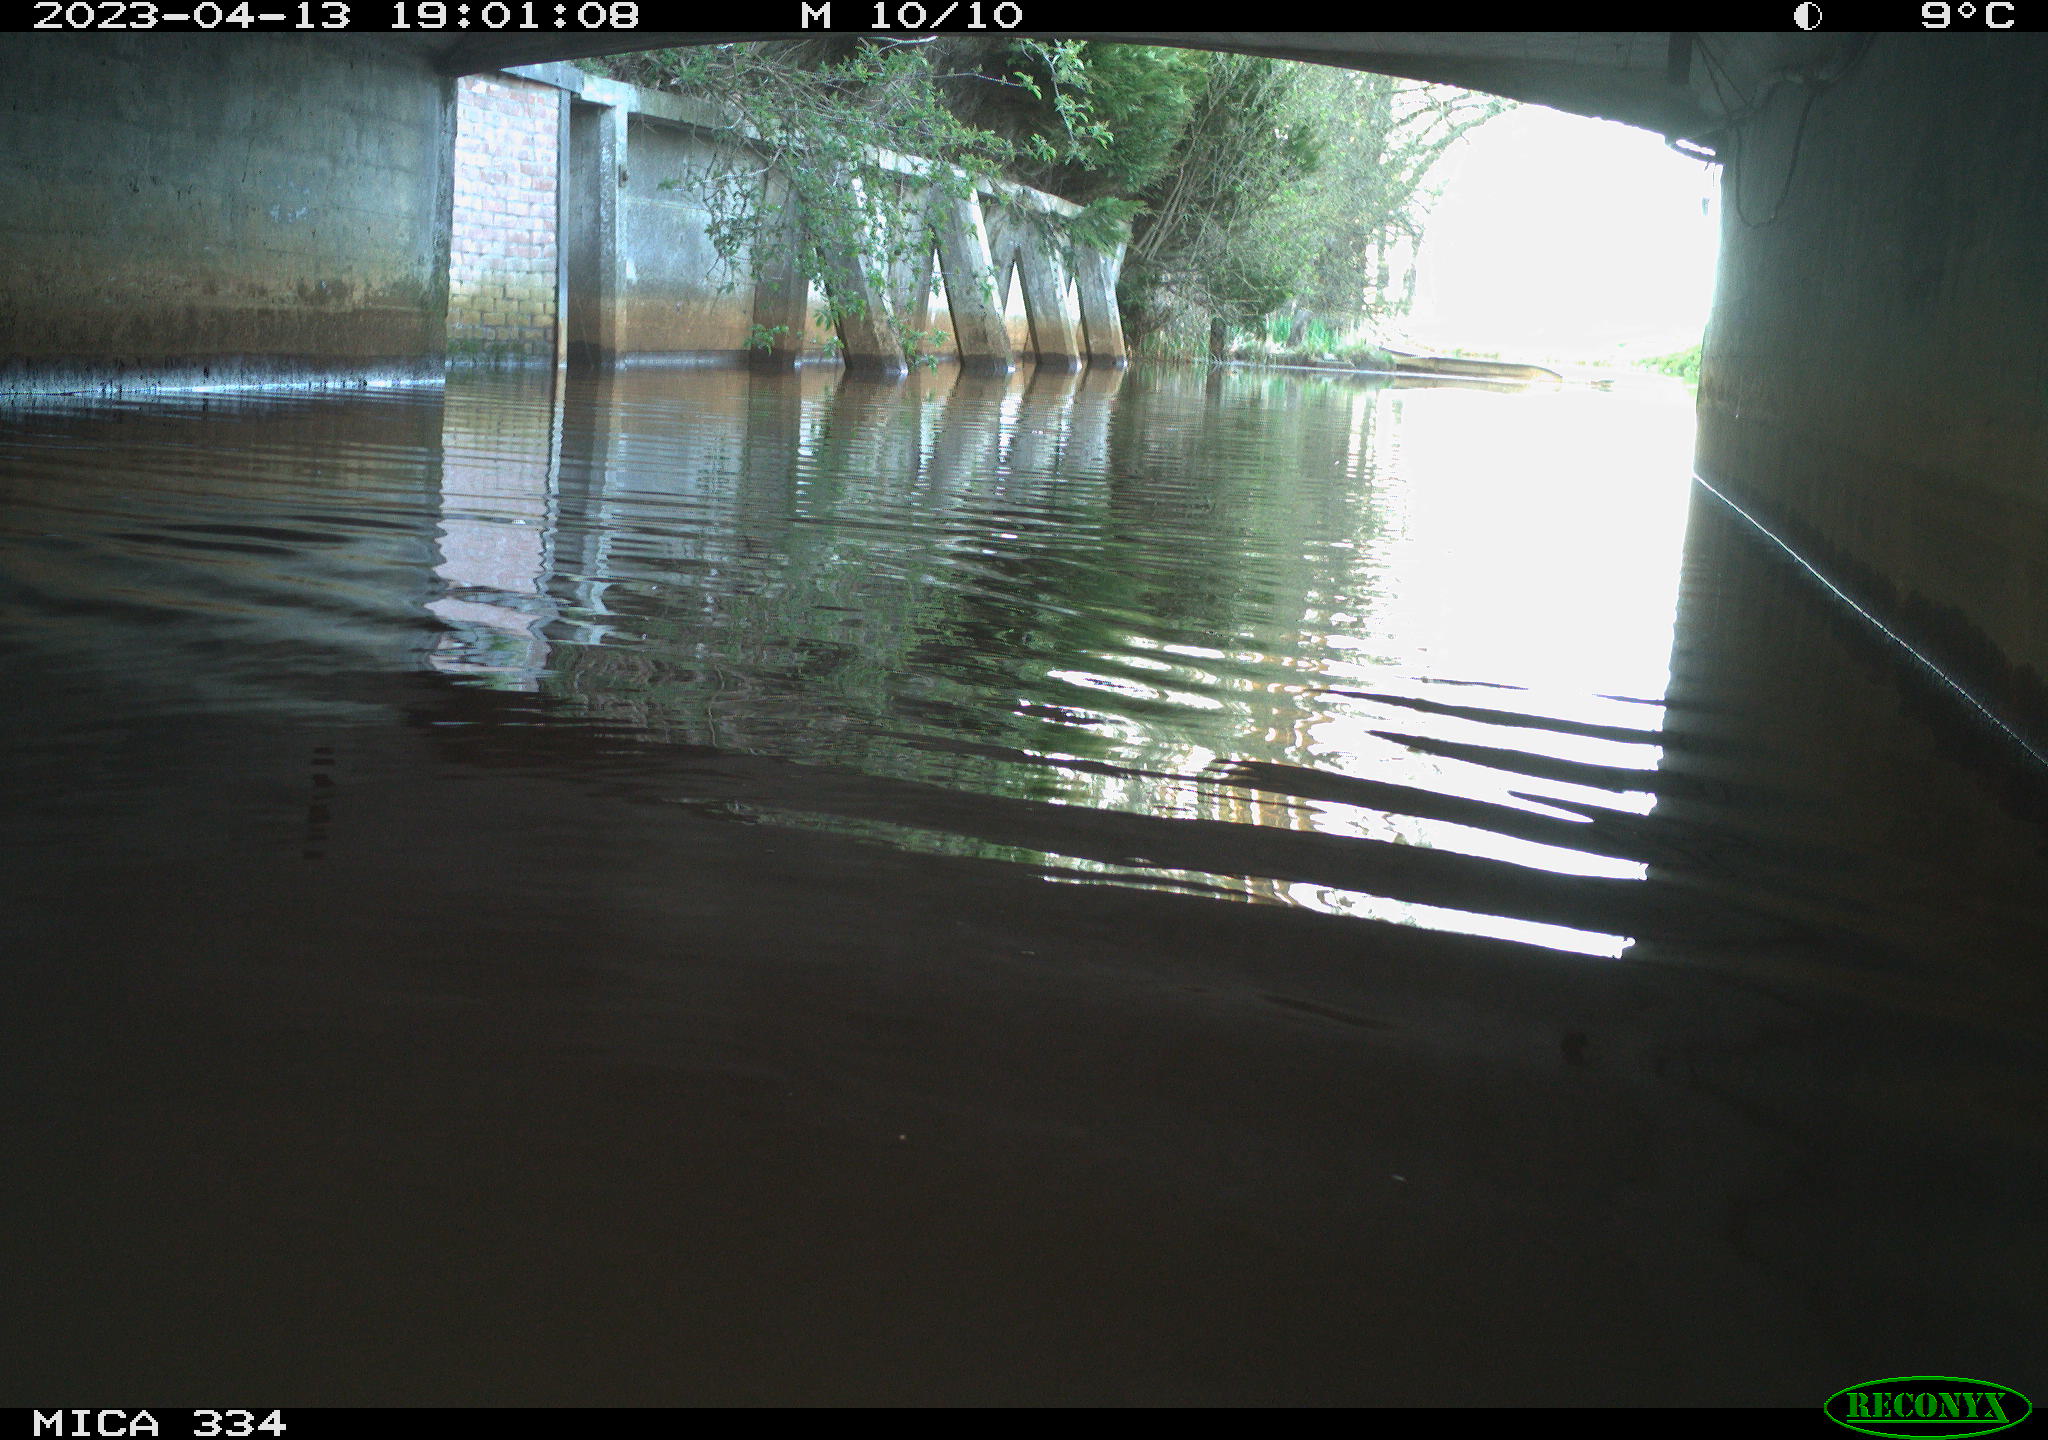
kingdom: Animalia
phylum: Chordata
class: Aves
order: Anseriformes
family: Anatidae
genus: Anas
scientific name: Anas
